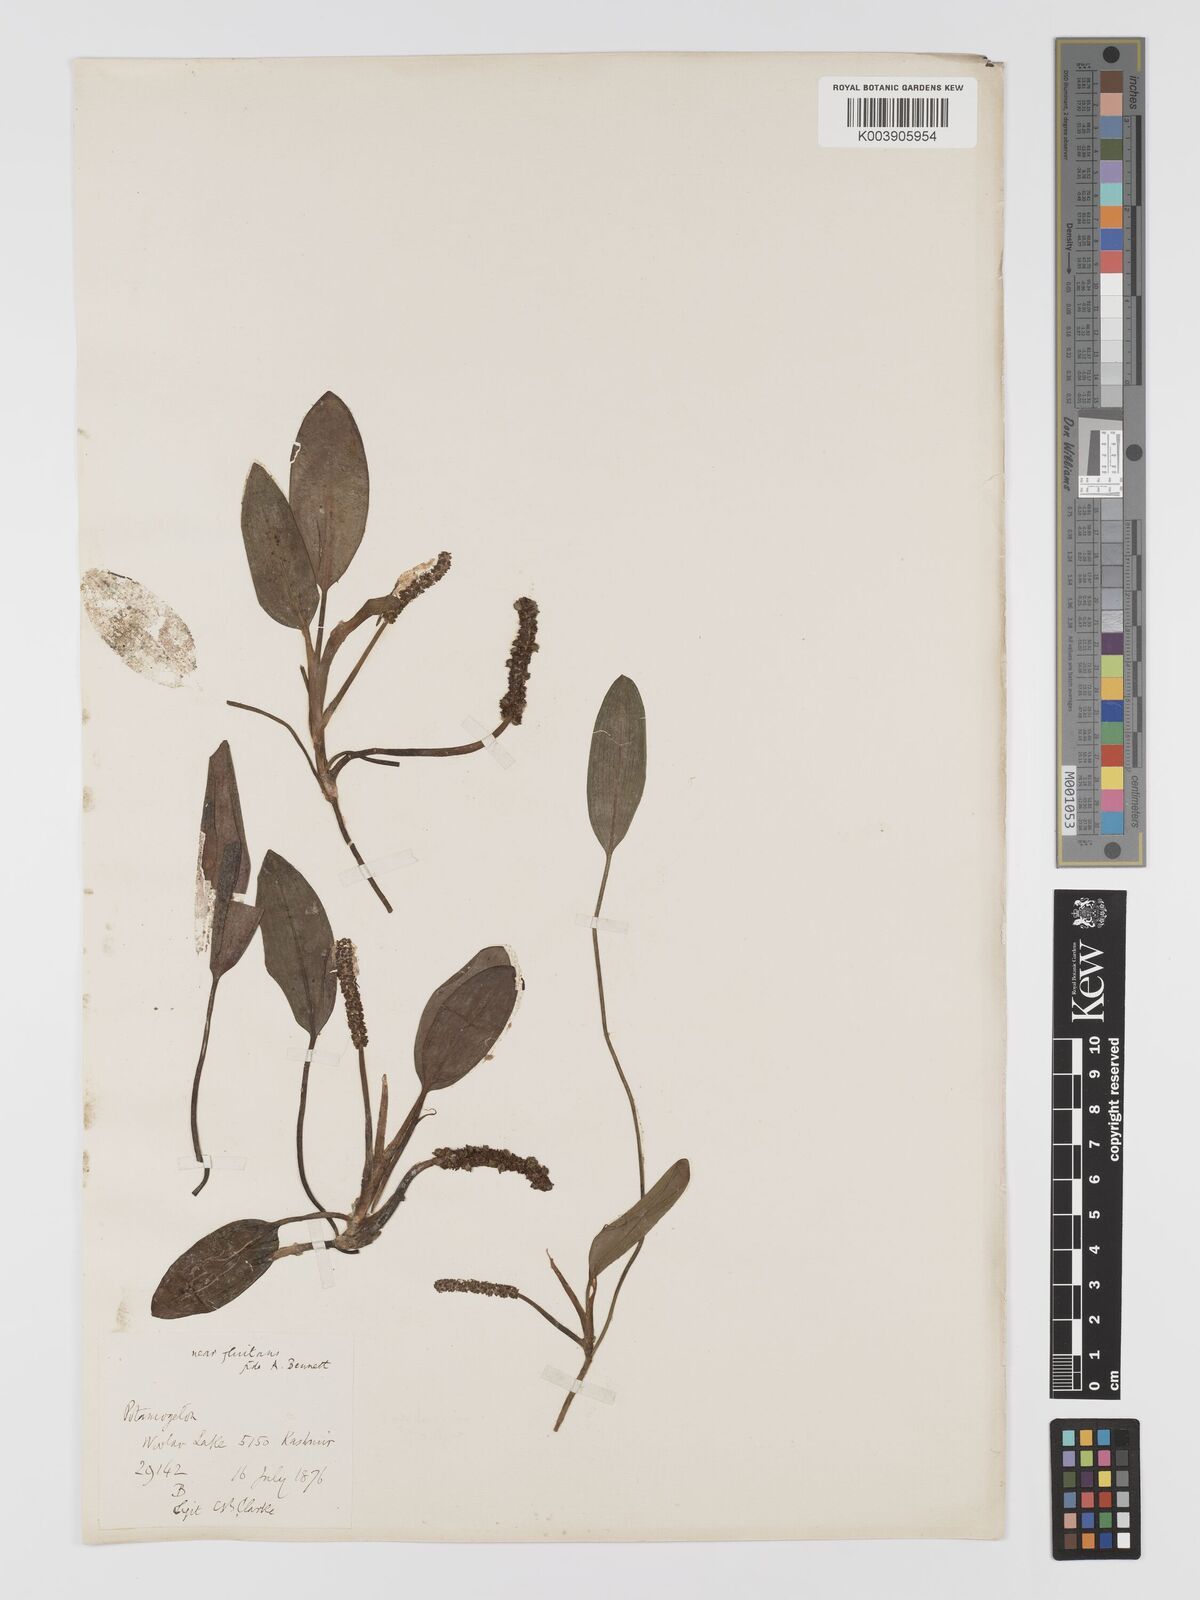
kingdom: Plantae
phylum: Tracheophyta
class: Liliopsida
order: Alismatales
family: Potamogetonaceae
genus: Potamogeton
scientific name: Potamogeton distinctus
